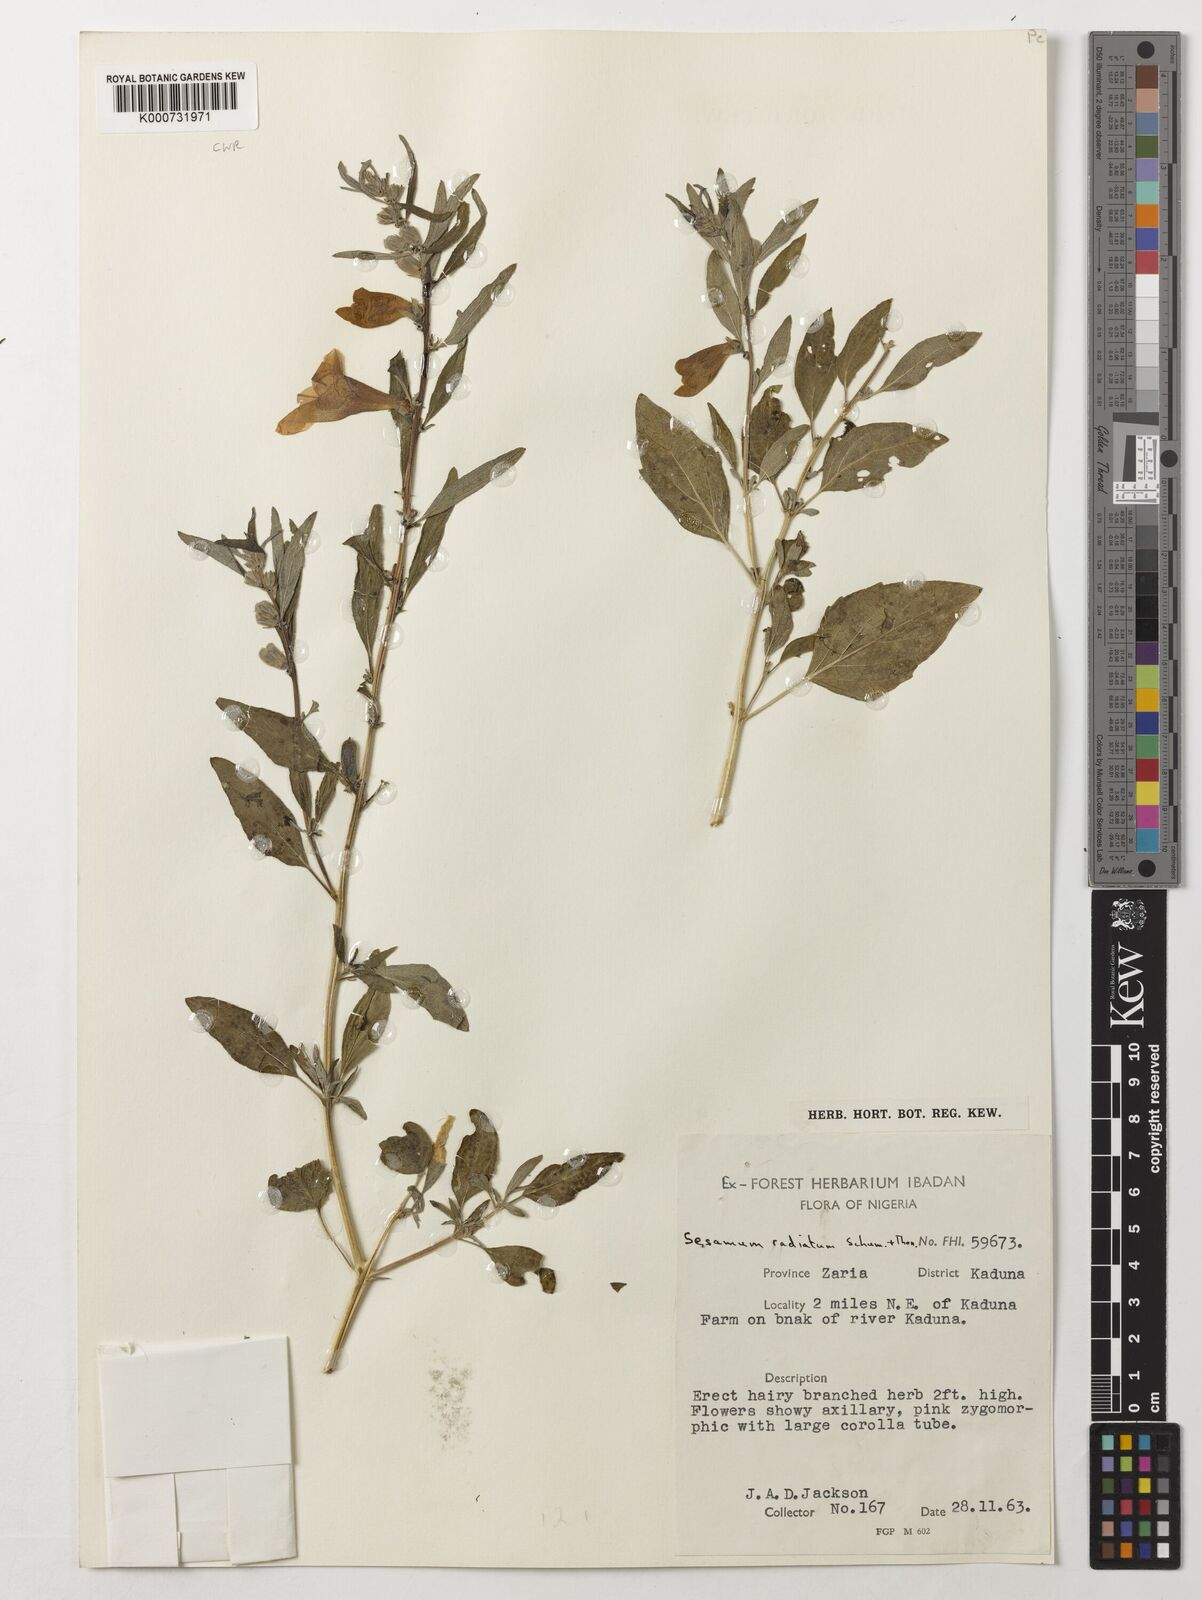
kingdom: Plantae
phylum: Tracheophyta
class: Magnoliopsida
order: Lamiales
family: Pedaliaceae
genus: Sesamum
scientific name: Sesamum
